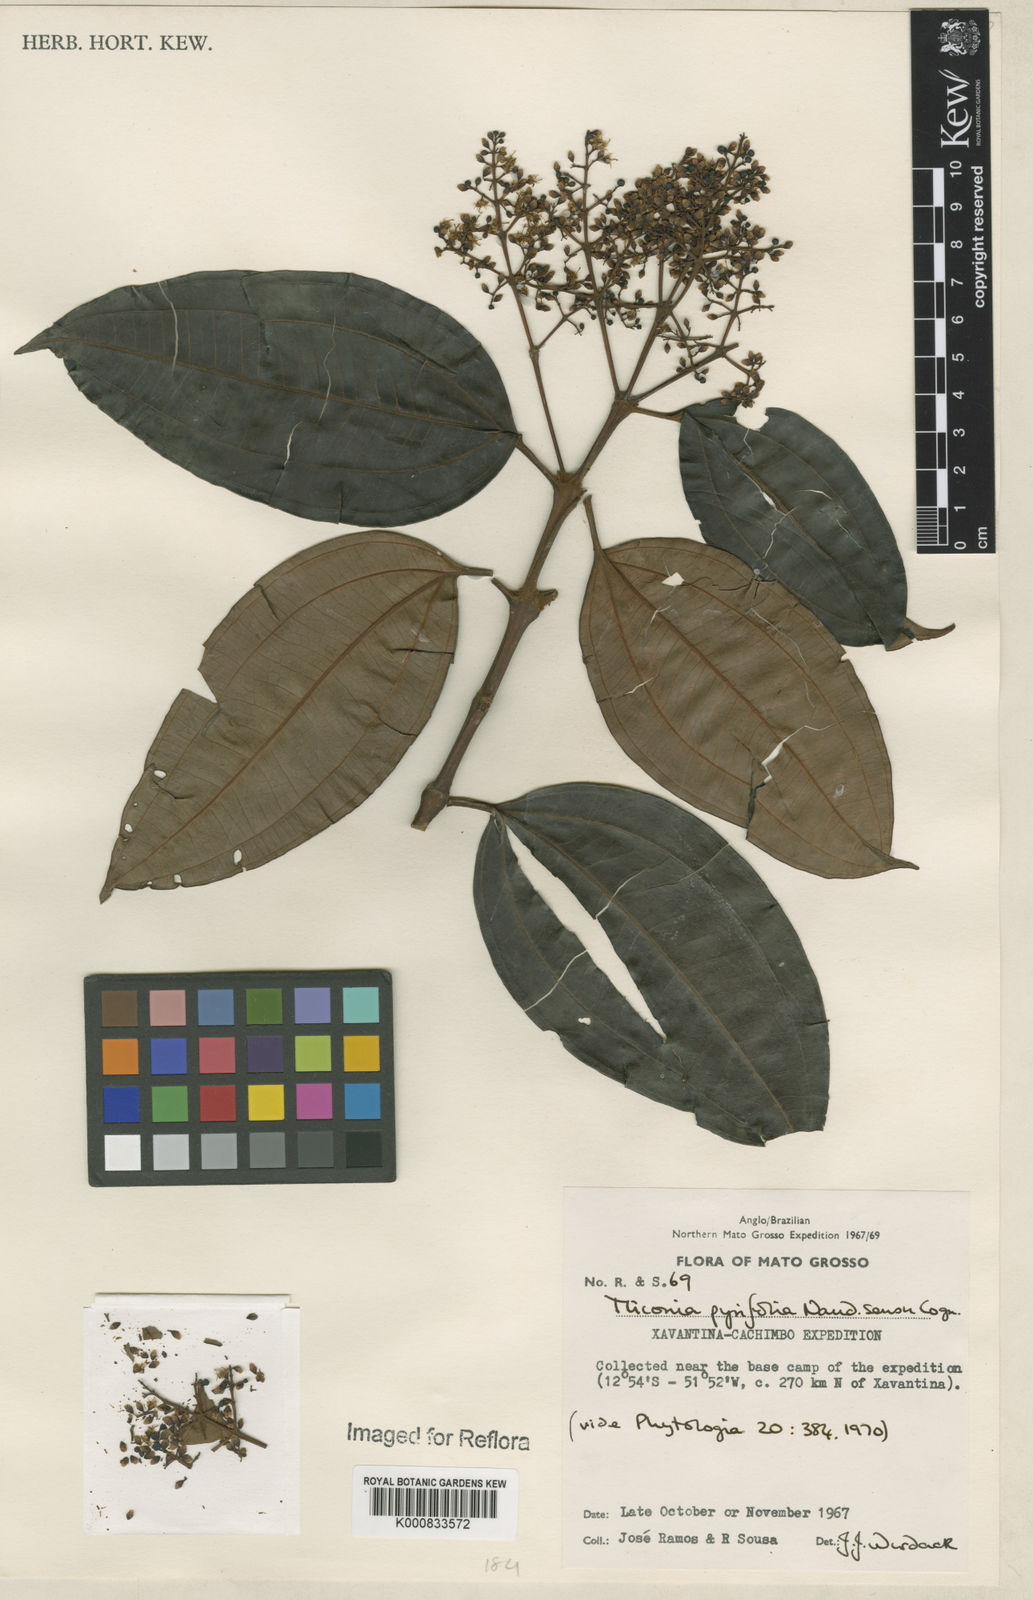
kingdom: Plantae
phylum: Tracheophyta
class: Magnoliopsida
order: Myrtales
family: Melastomataceae
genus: Miconia
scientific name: Miconia pyrifolia
